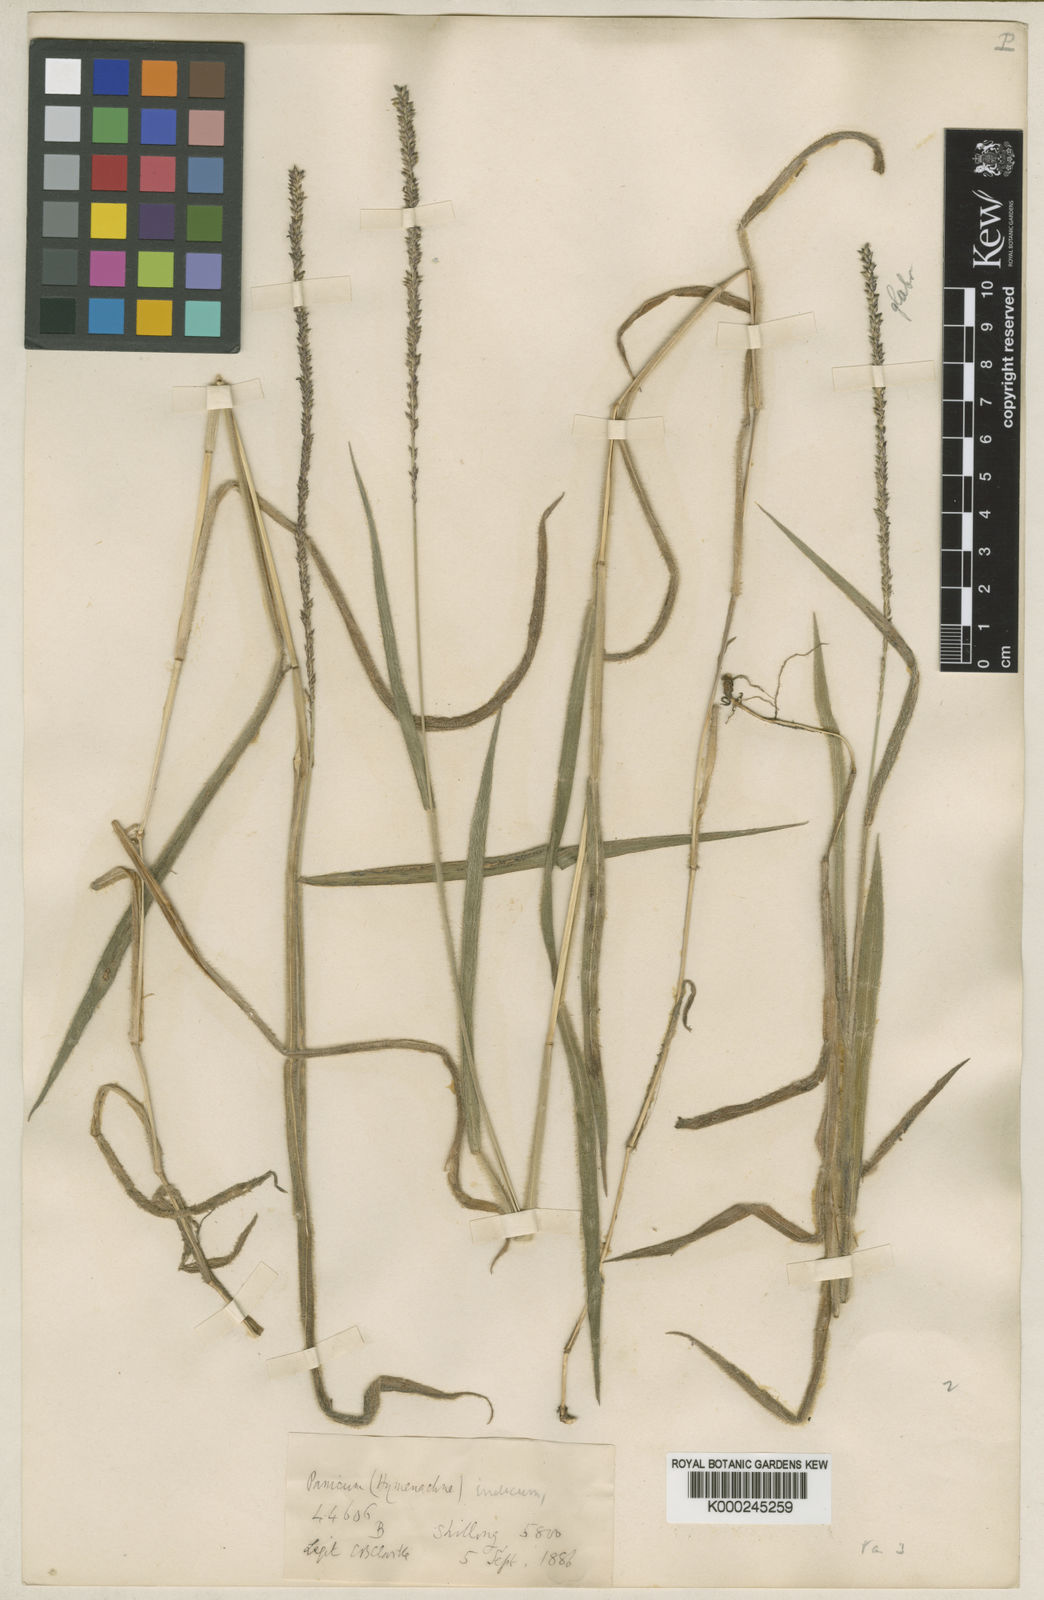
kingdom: Plantae
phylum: Tracheophyta
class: Liliopsida
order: Poales
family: Poaceae
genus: Sacciolepis
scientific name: Sacciolepis indica
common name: Glenwoodgrass
